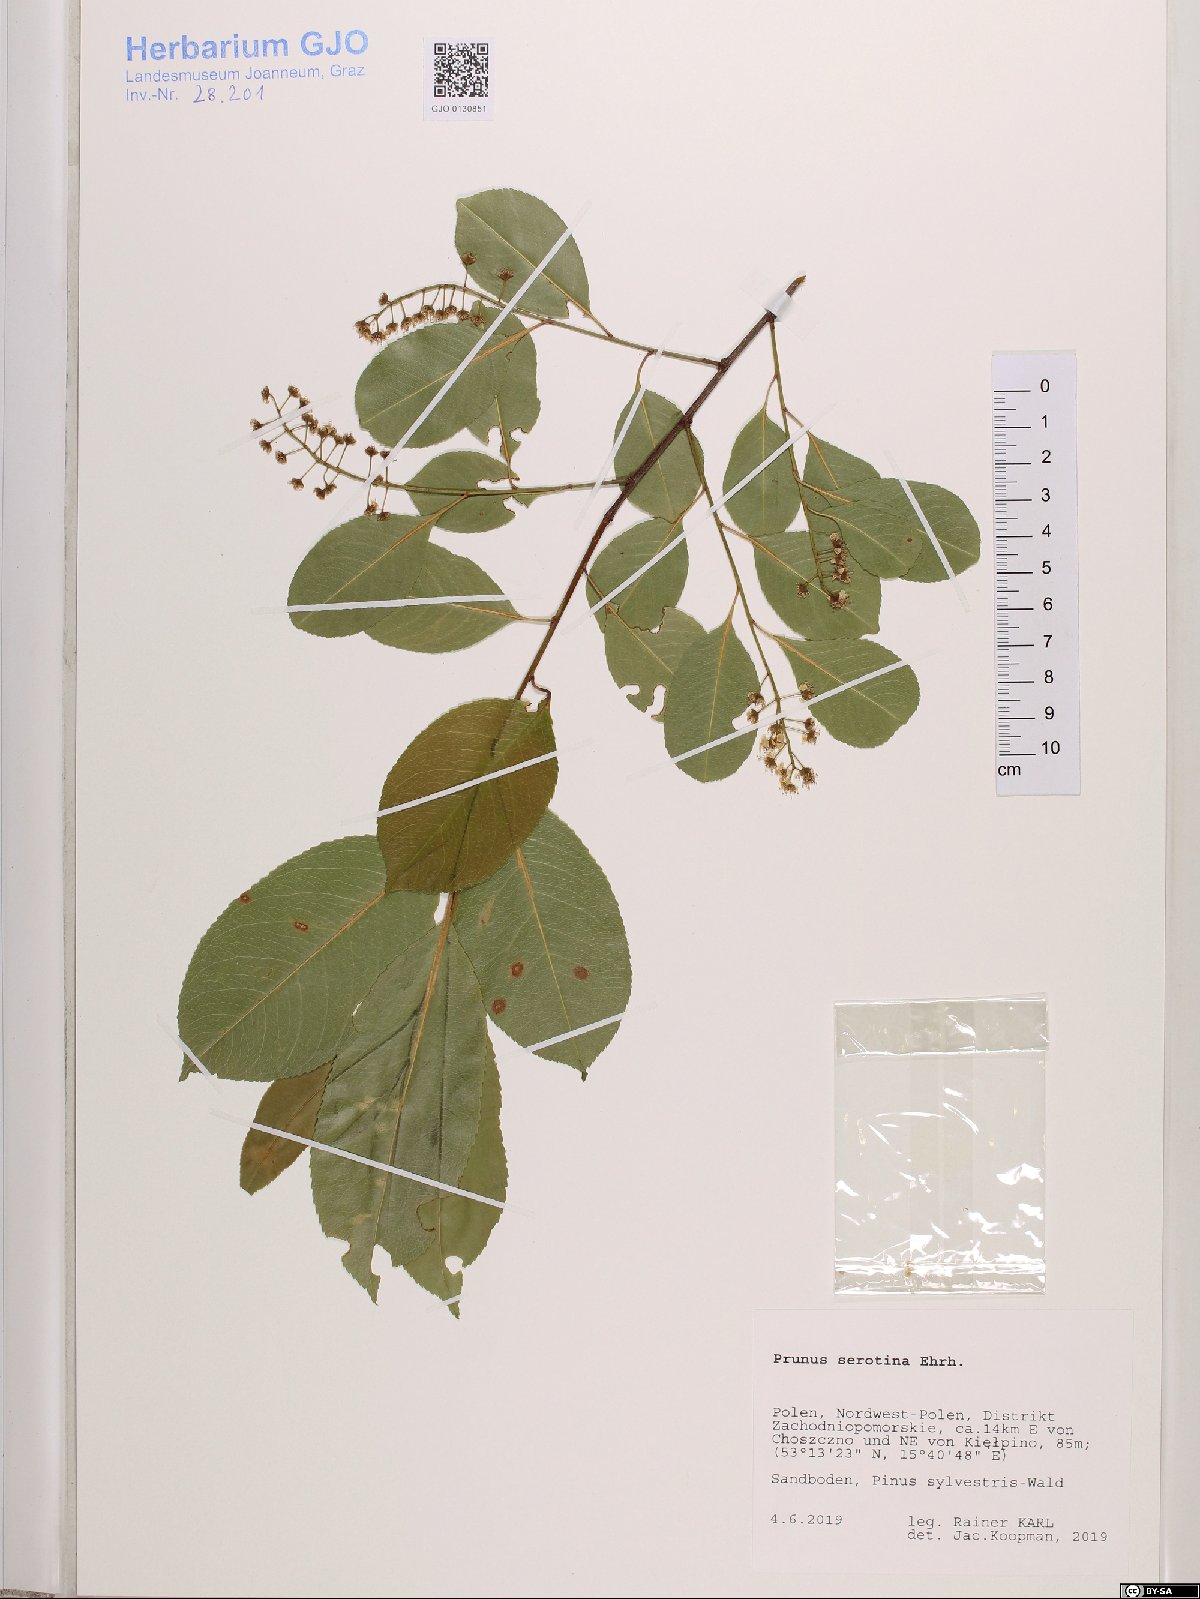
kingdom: Plantae
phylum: Tracheophyta
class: Magnoliopsida
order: Rosales
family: Rosaceae
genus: Prunus
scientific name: Prunus serotina
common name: Black cherry
